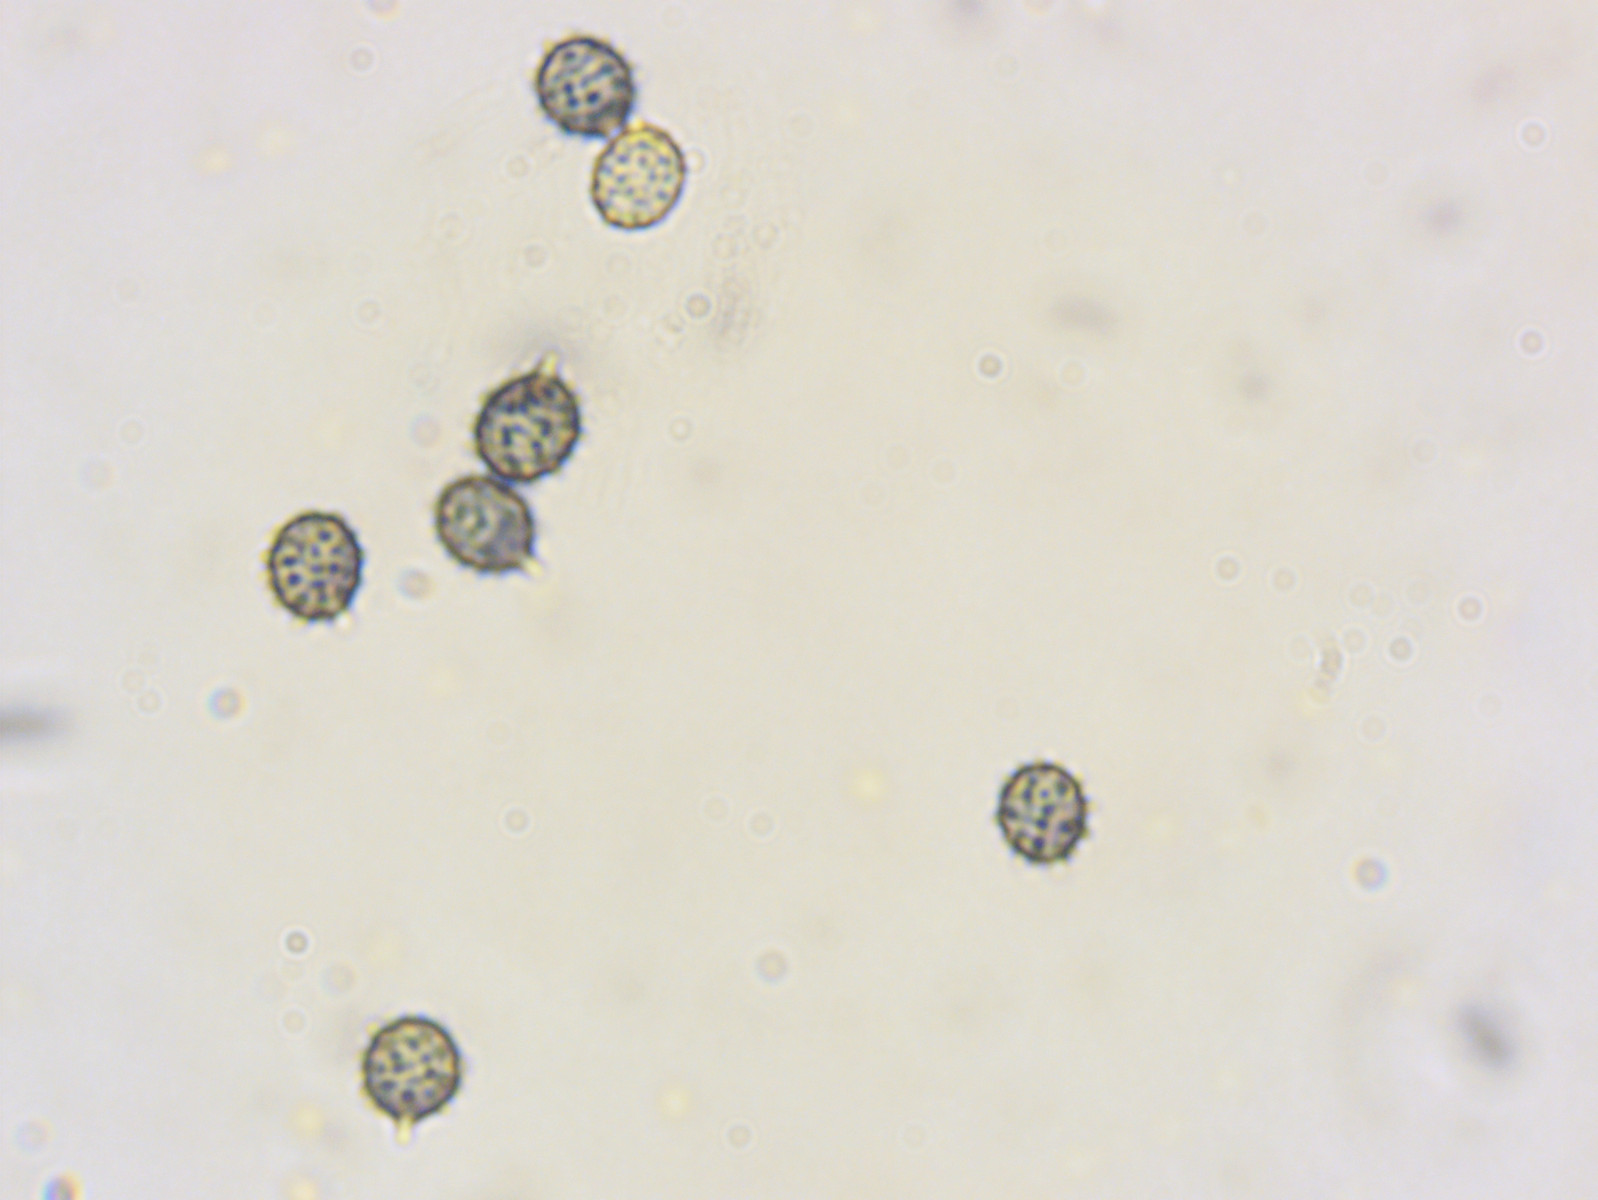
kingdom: Fungi
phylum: Basidiomycota
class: Agaricomycetes
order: Russulales
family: Russulaceae
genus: Russula
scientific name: Russula brunneoviolacea
